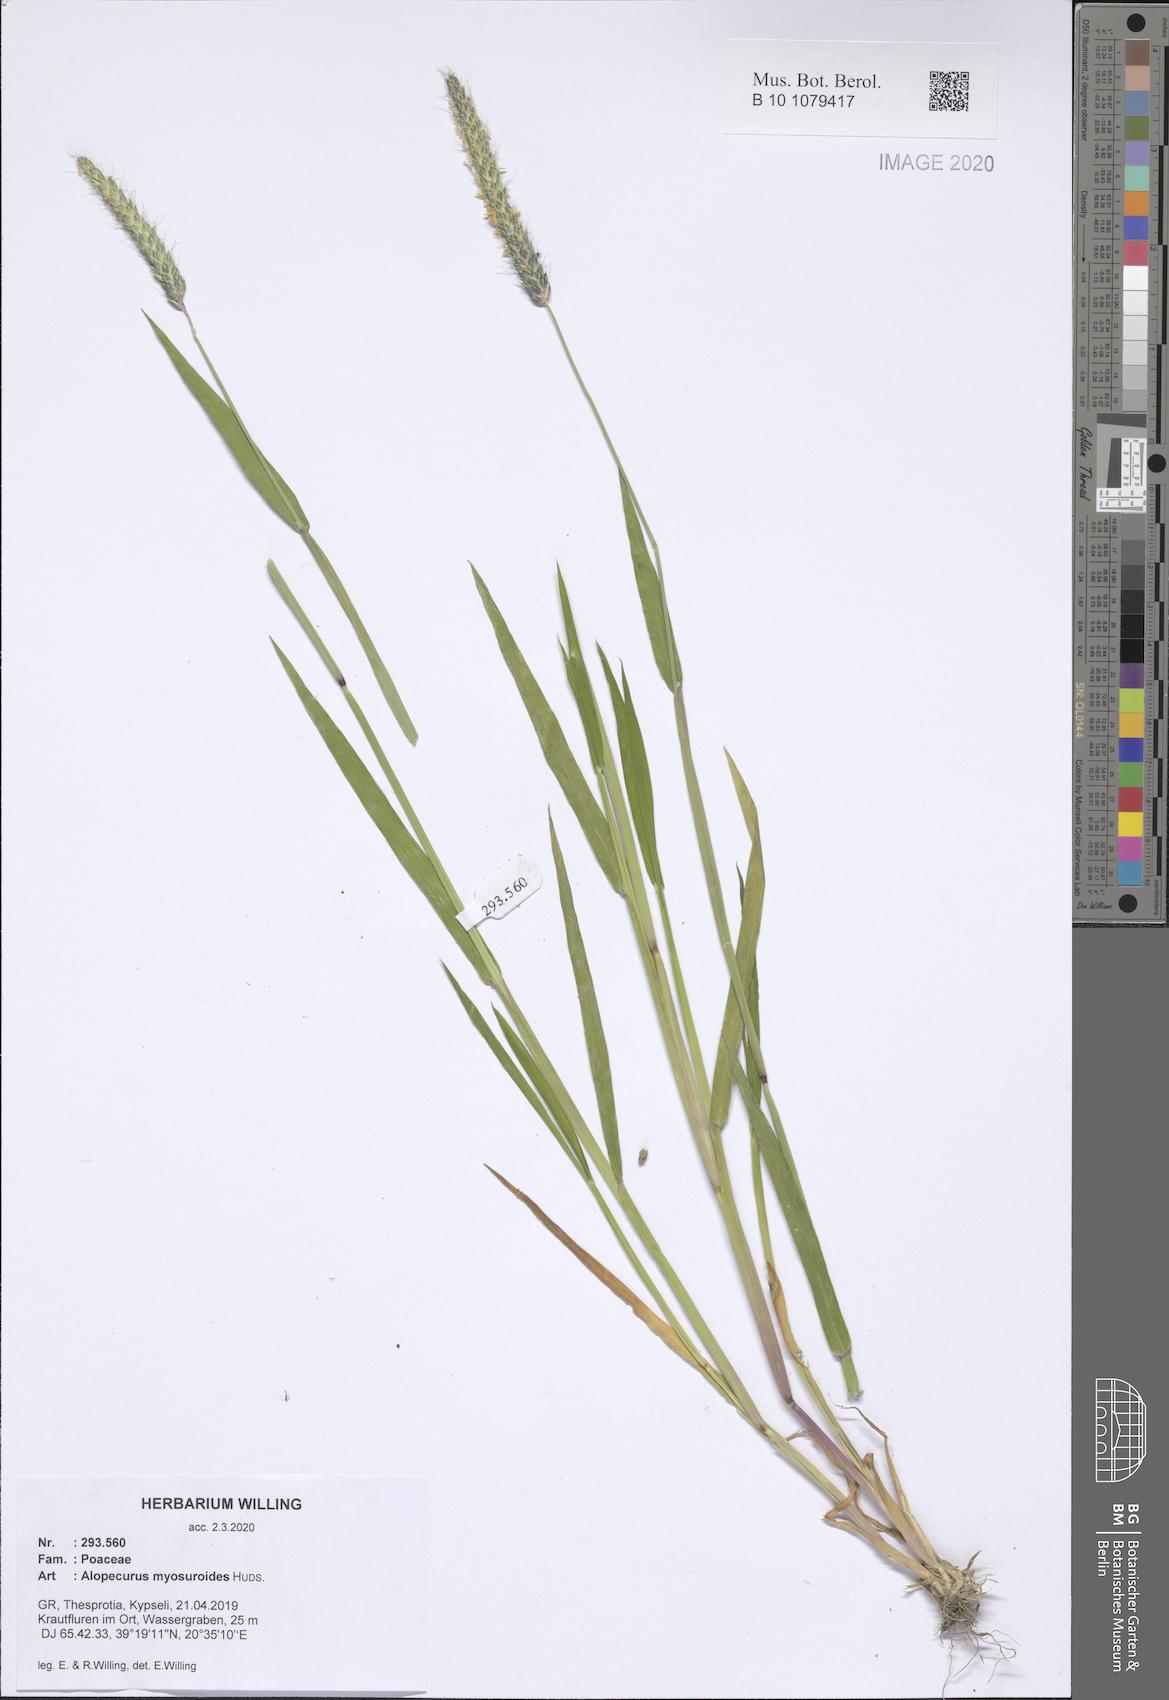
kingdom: Plantae
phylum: Tracheophyta
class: Liliopsida
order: Poales
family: Poaceae
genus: Alopecurus
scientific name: Alopecurus myosuroides
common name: Black-grass
